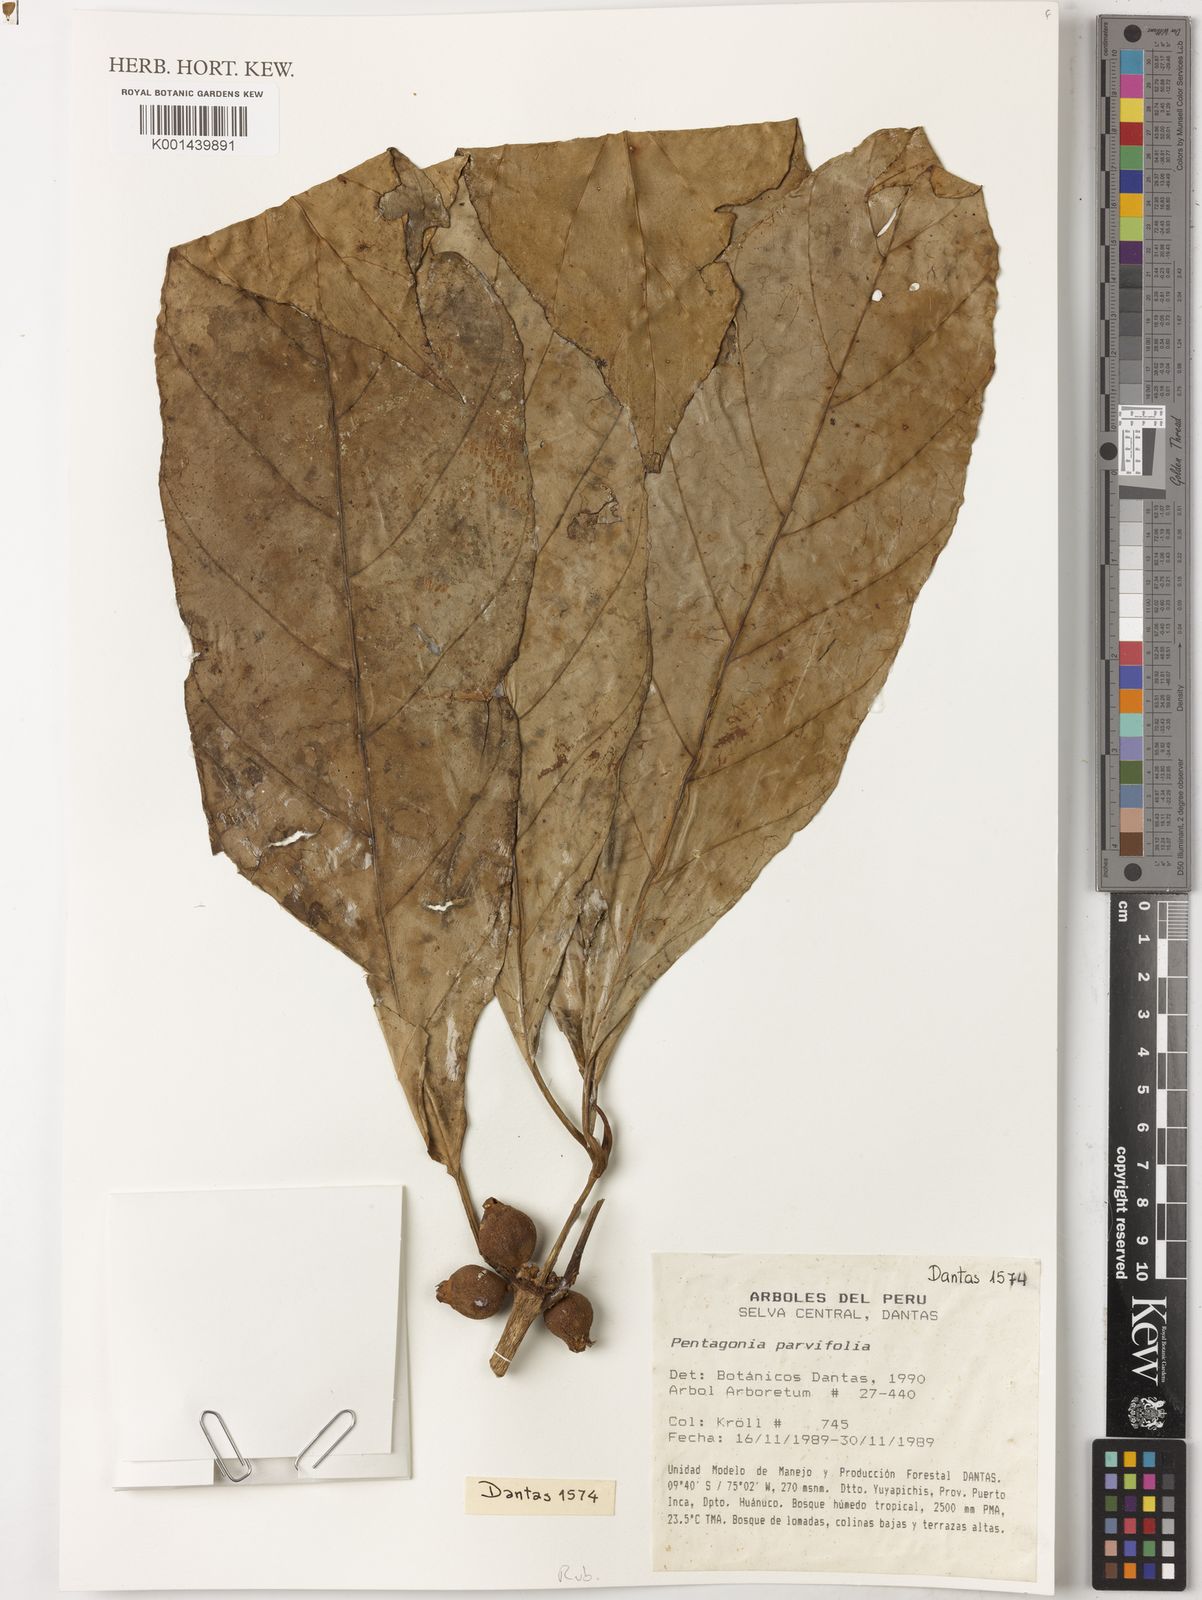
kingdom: Plantae
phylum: Tracheophyta
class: Magnoliopsida
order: Gentianales
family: Rubiaceae
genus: Pentagonia
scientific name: Pentagonia parvifolia
